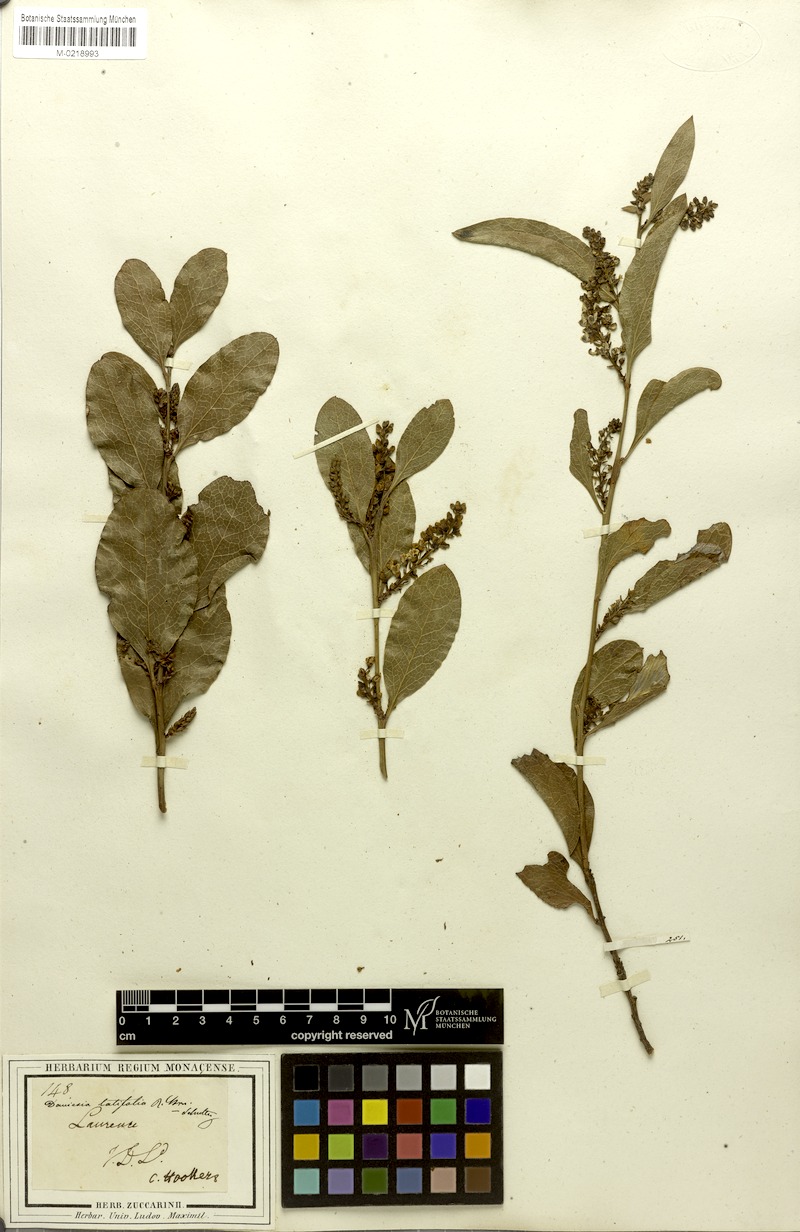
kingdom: Plantae
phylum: Tracheophyta
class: Magnoliopsida
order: Fabales
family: Fabaceae
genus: Daviesia
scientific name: Daviesia latifolia
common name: Hop bitter-pea
